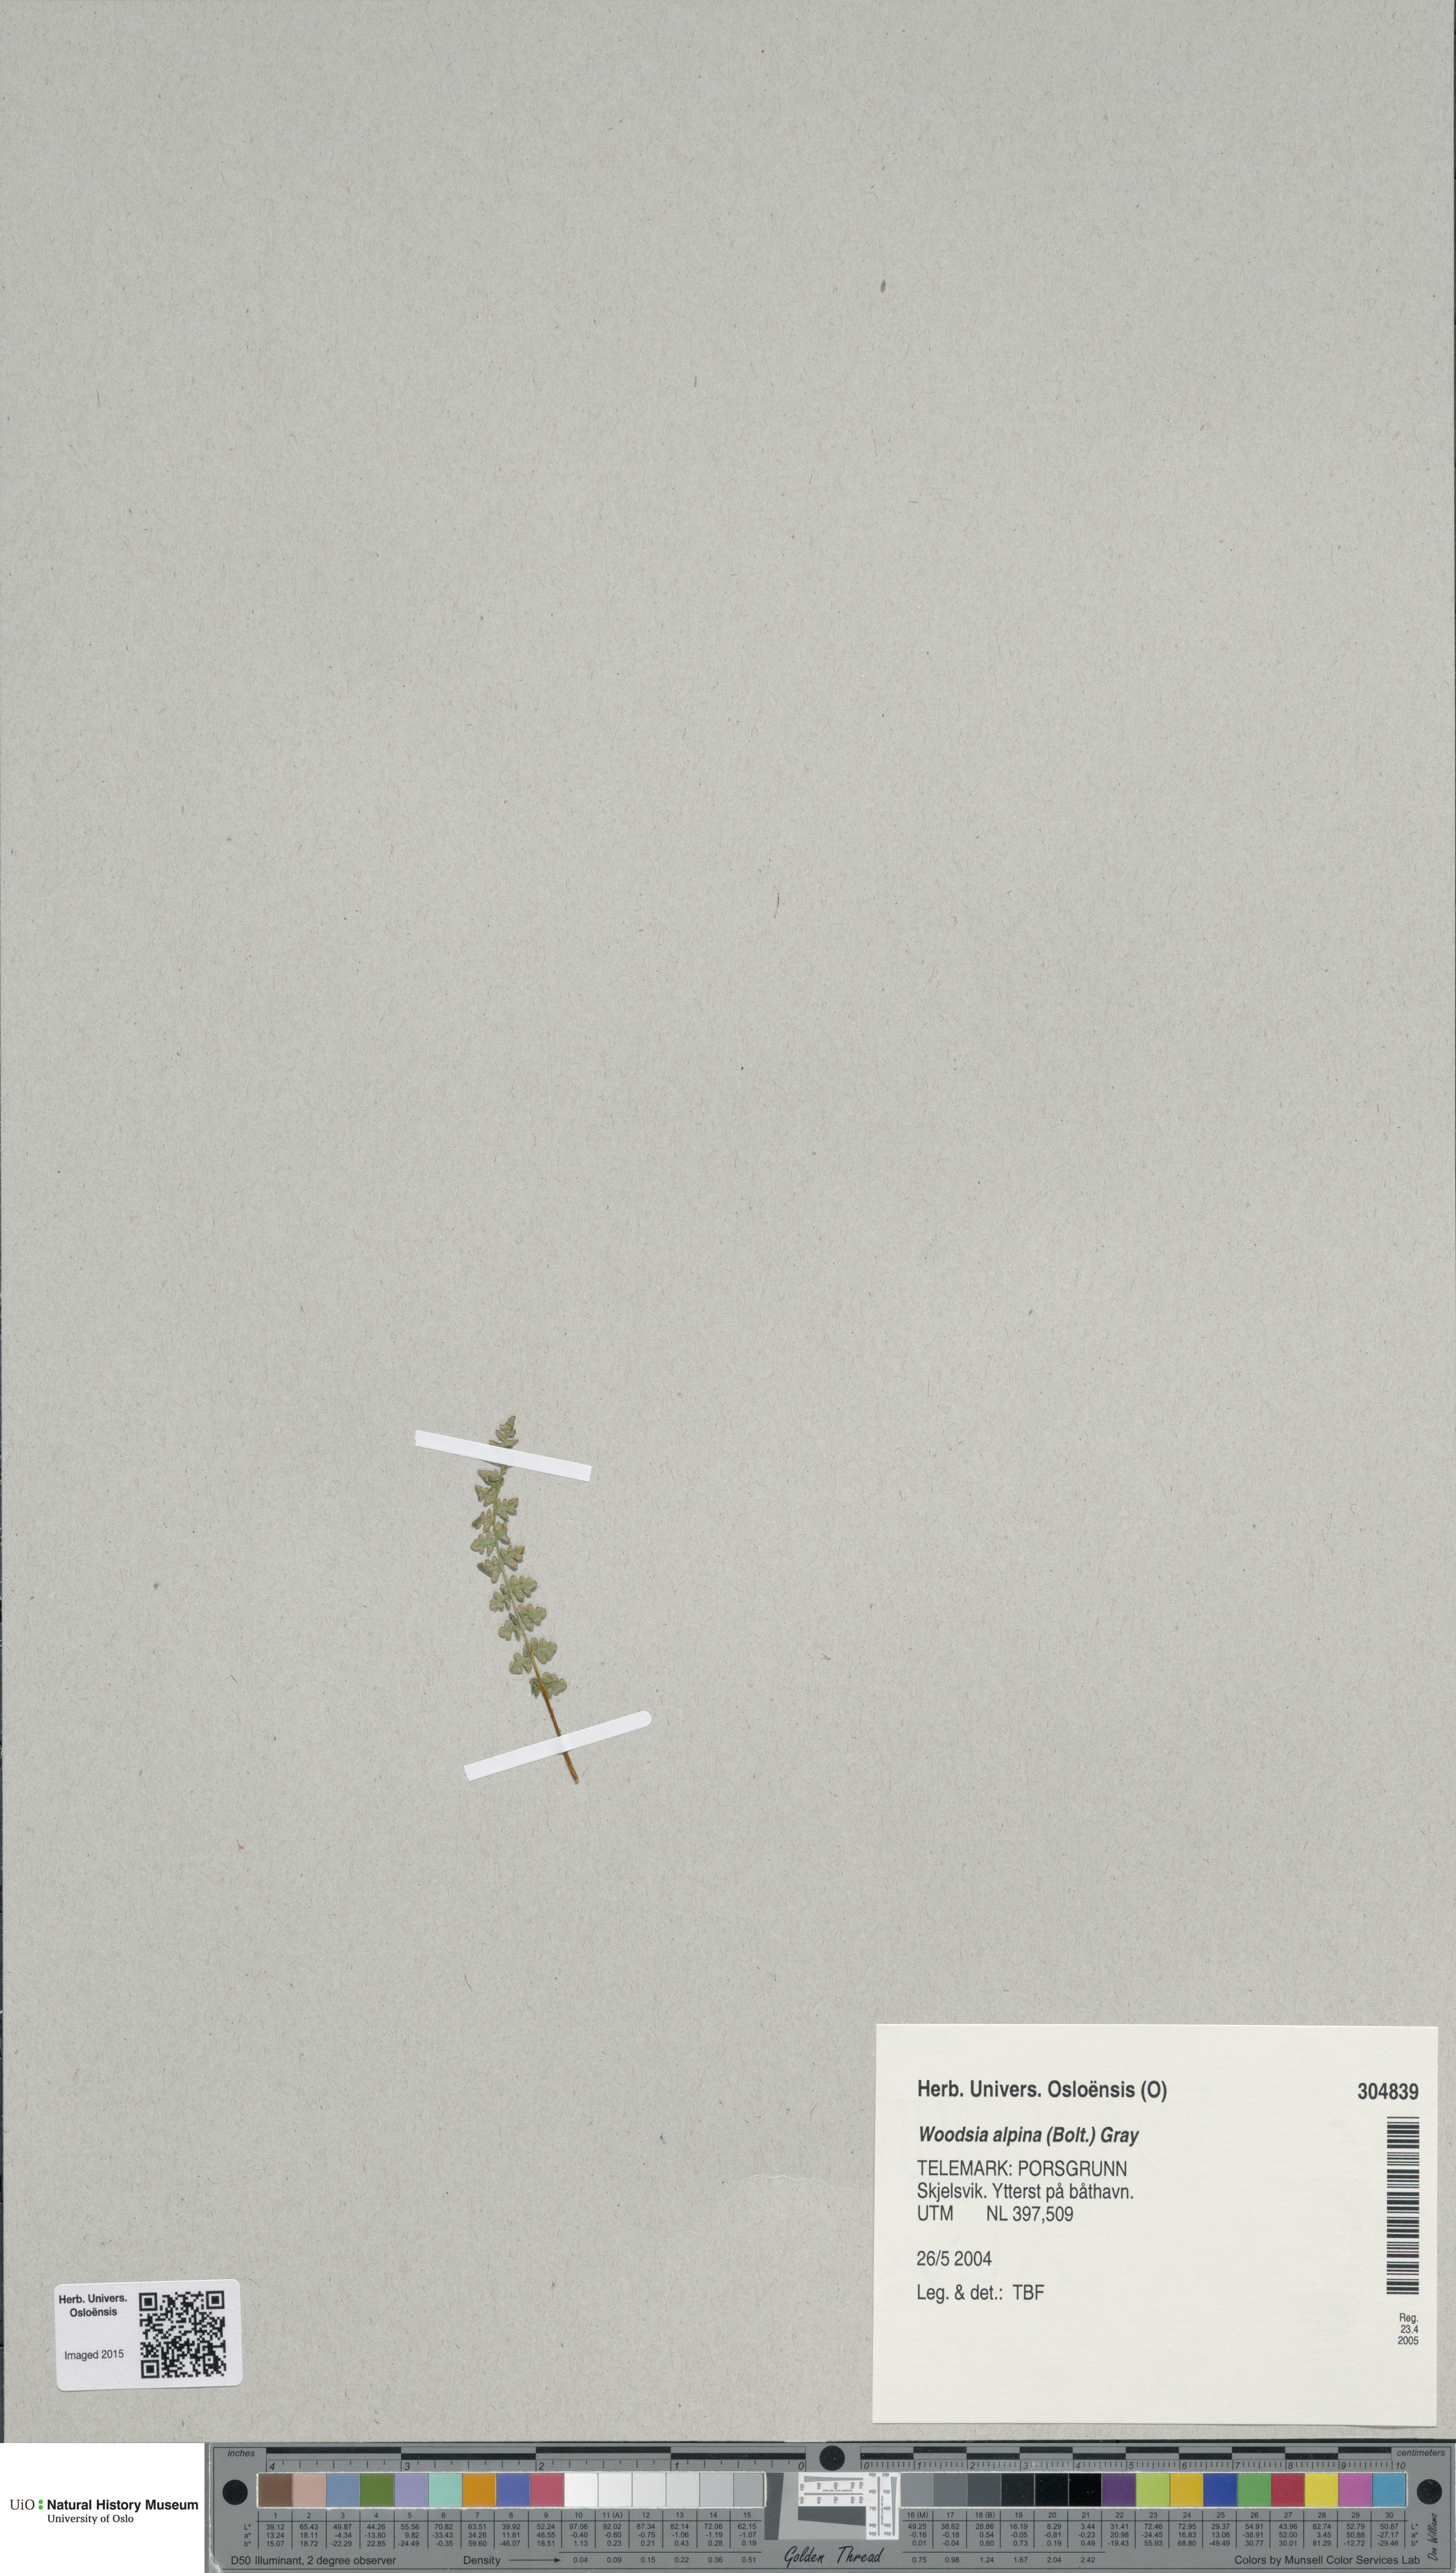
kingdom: Plantae
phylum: Tracheophyta
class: Polypodiopsida
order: Polypodiales
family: Woodsiaceae
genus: Woodsia
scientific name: Woodsia alpina
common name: Alpine woodsia
